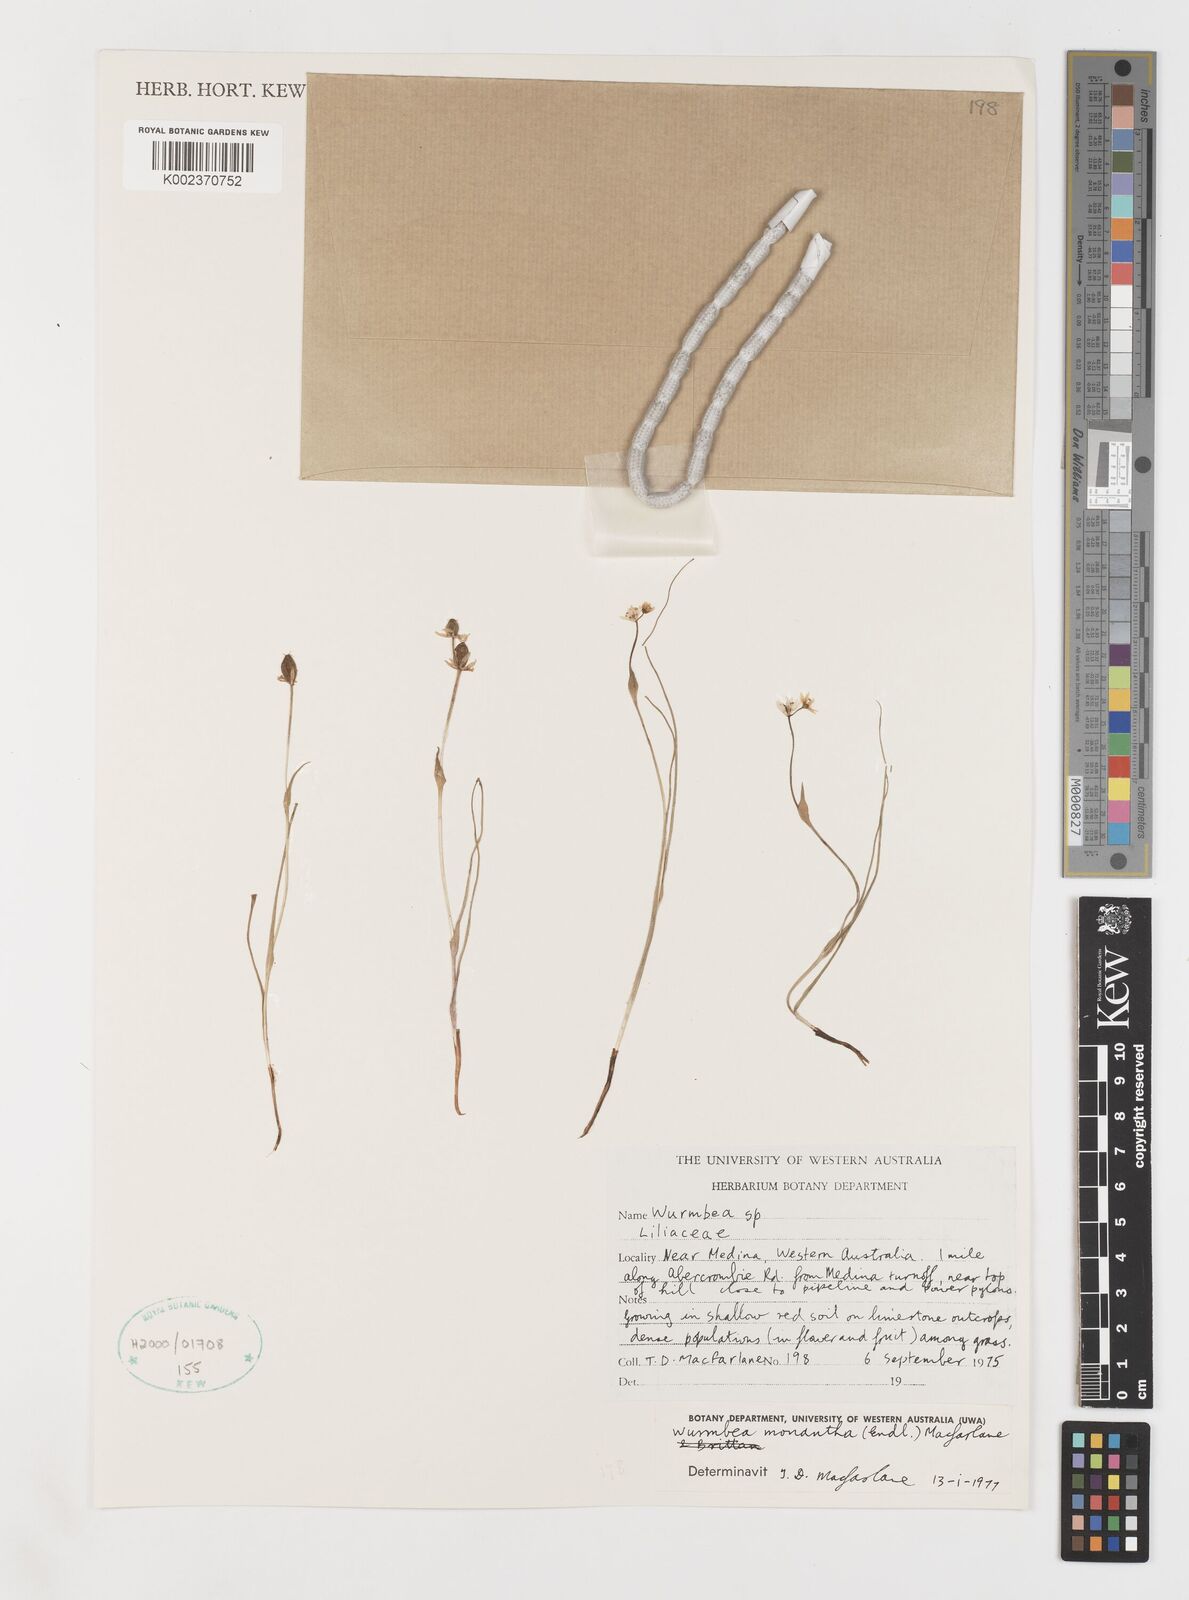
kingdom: Plantae
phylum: Tracheophyta
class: Liliopsida
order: Liliales
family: Colchicaceae
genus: Wurmbea
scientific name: Wurmbea monantha
